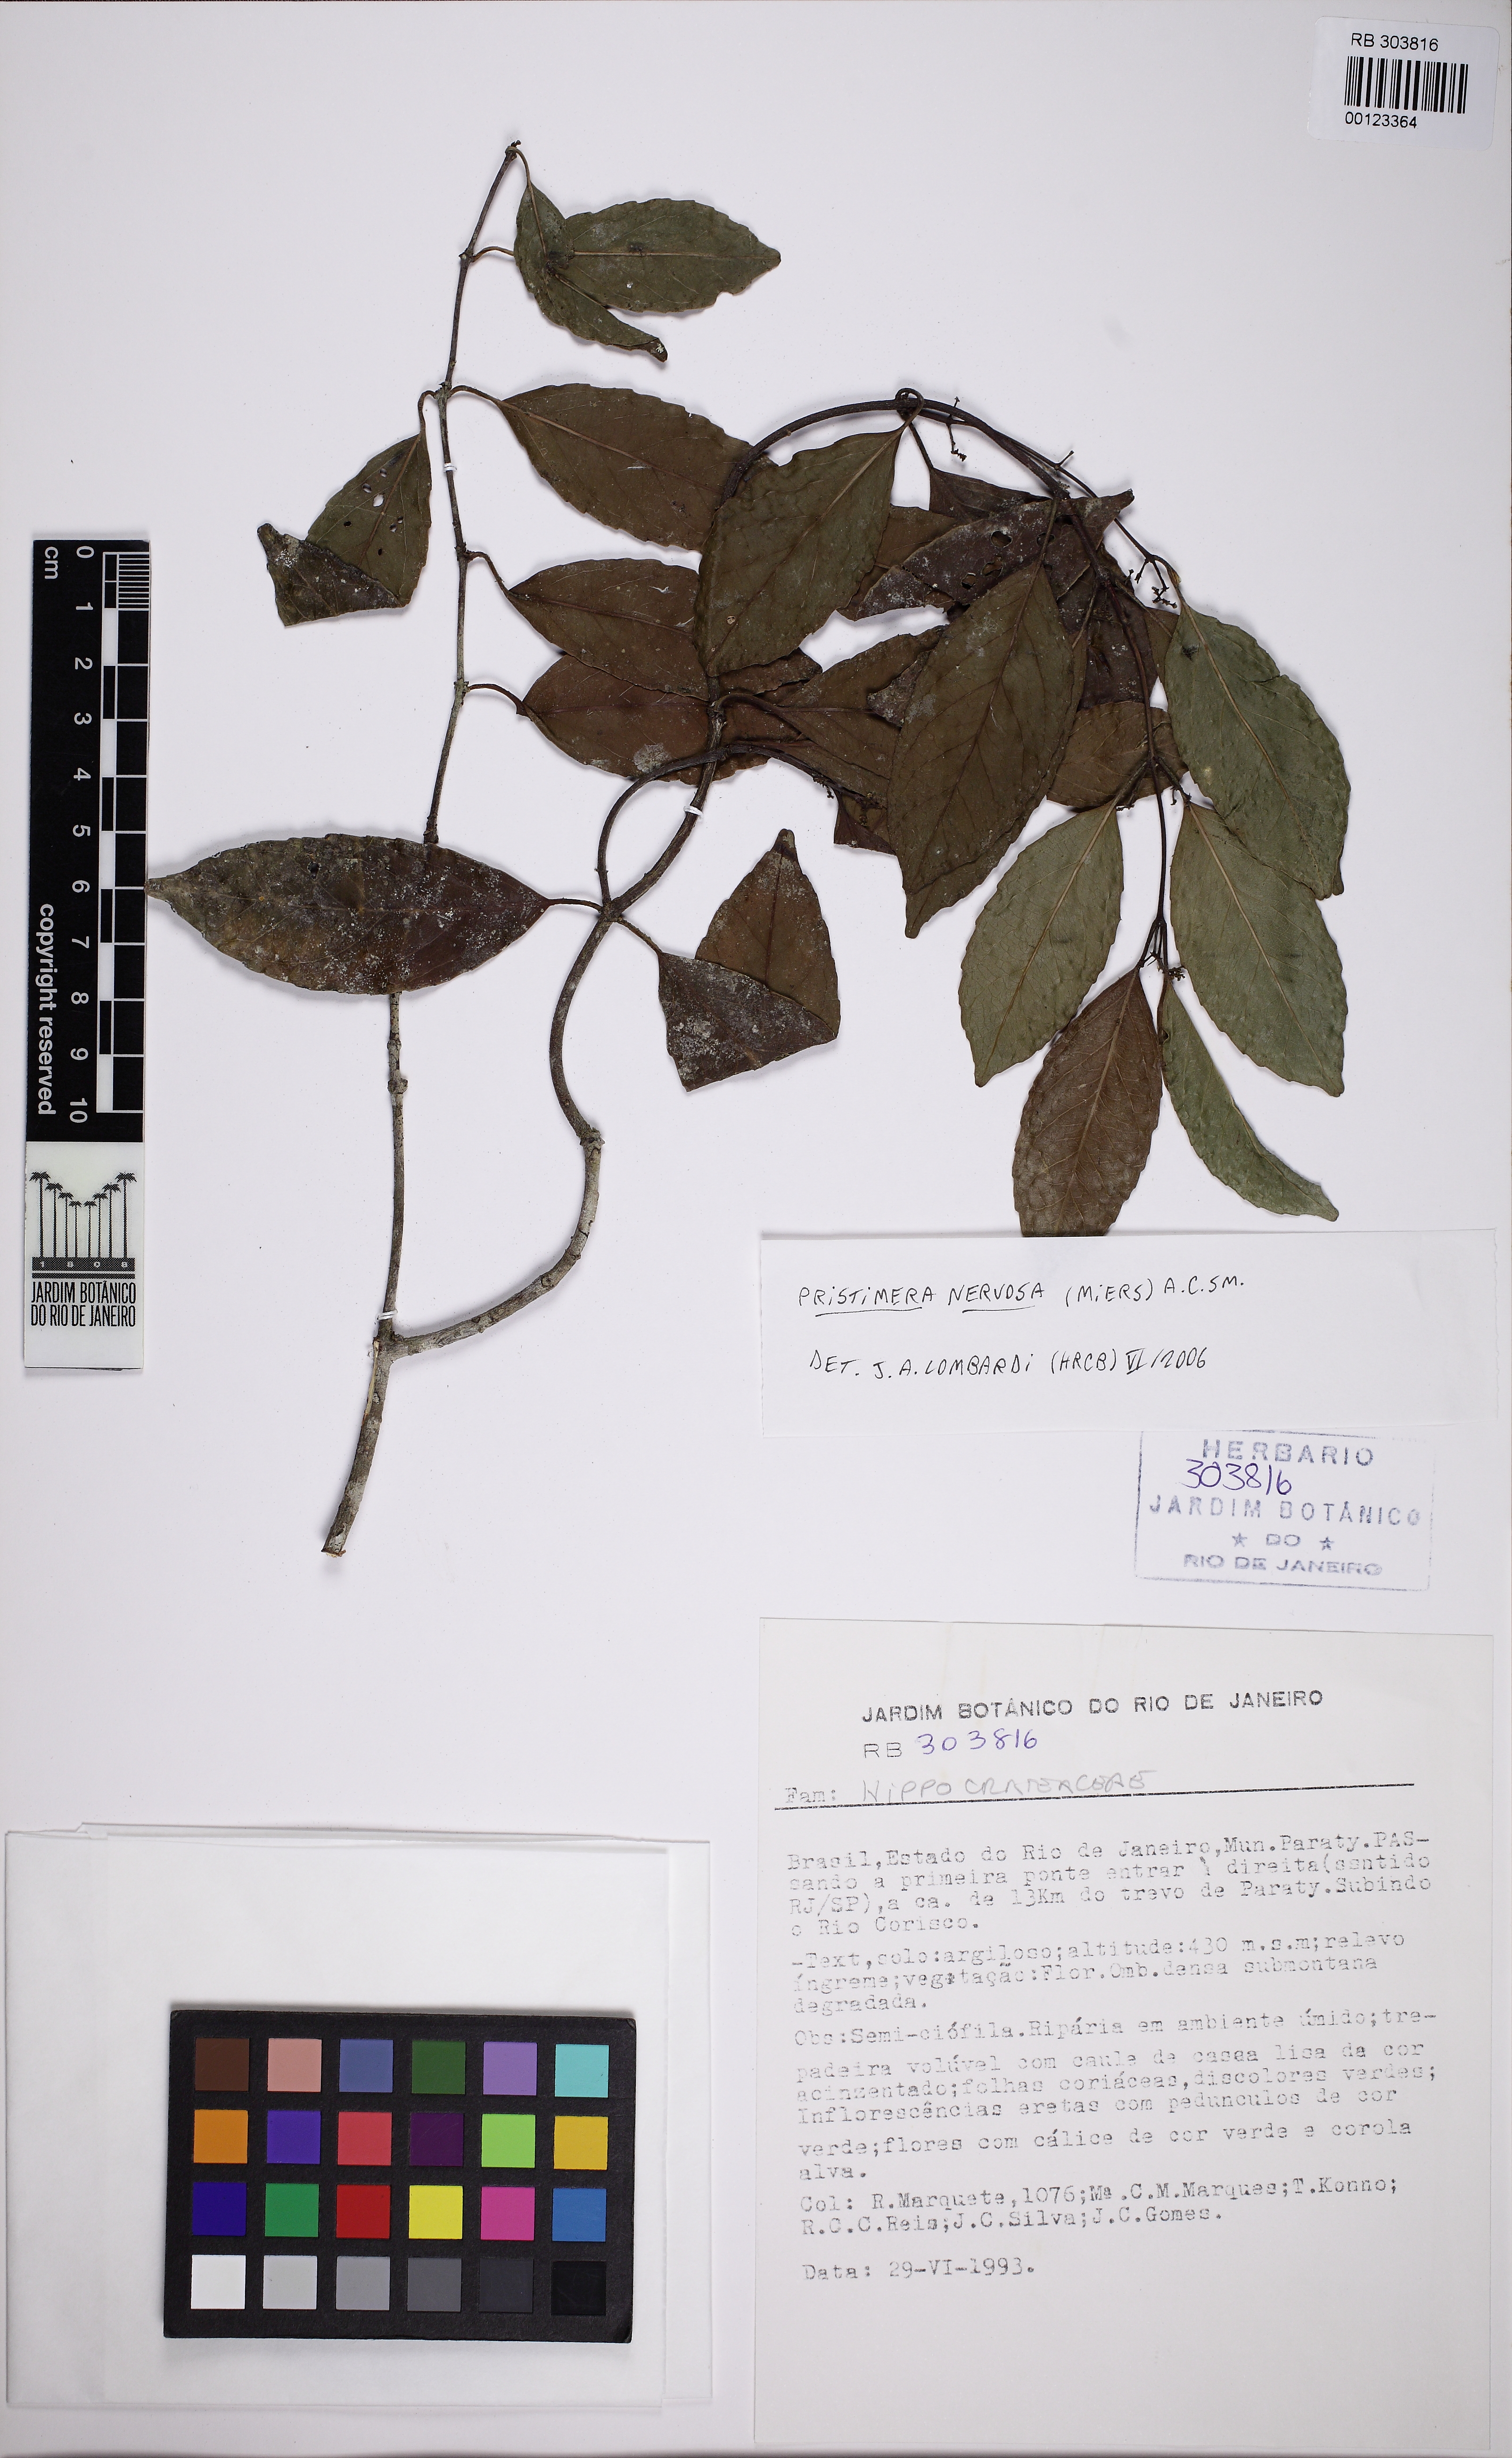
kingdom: Plantae
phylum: Tracheophyta
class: Magnoliopsida
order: Celastrales
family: Celastraceae
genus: Pristimera
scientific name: Pristimera nervosa
